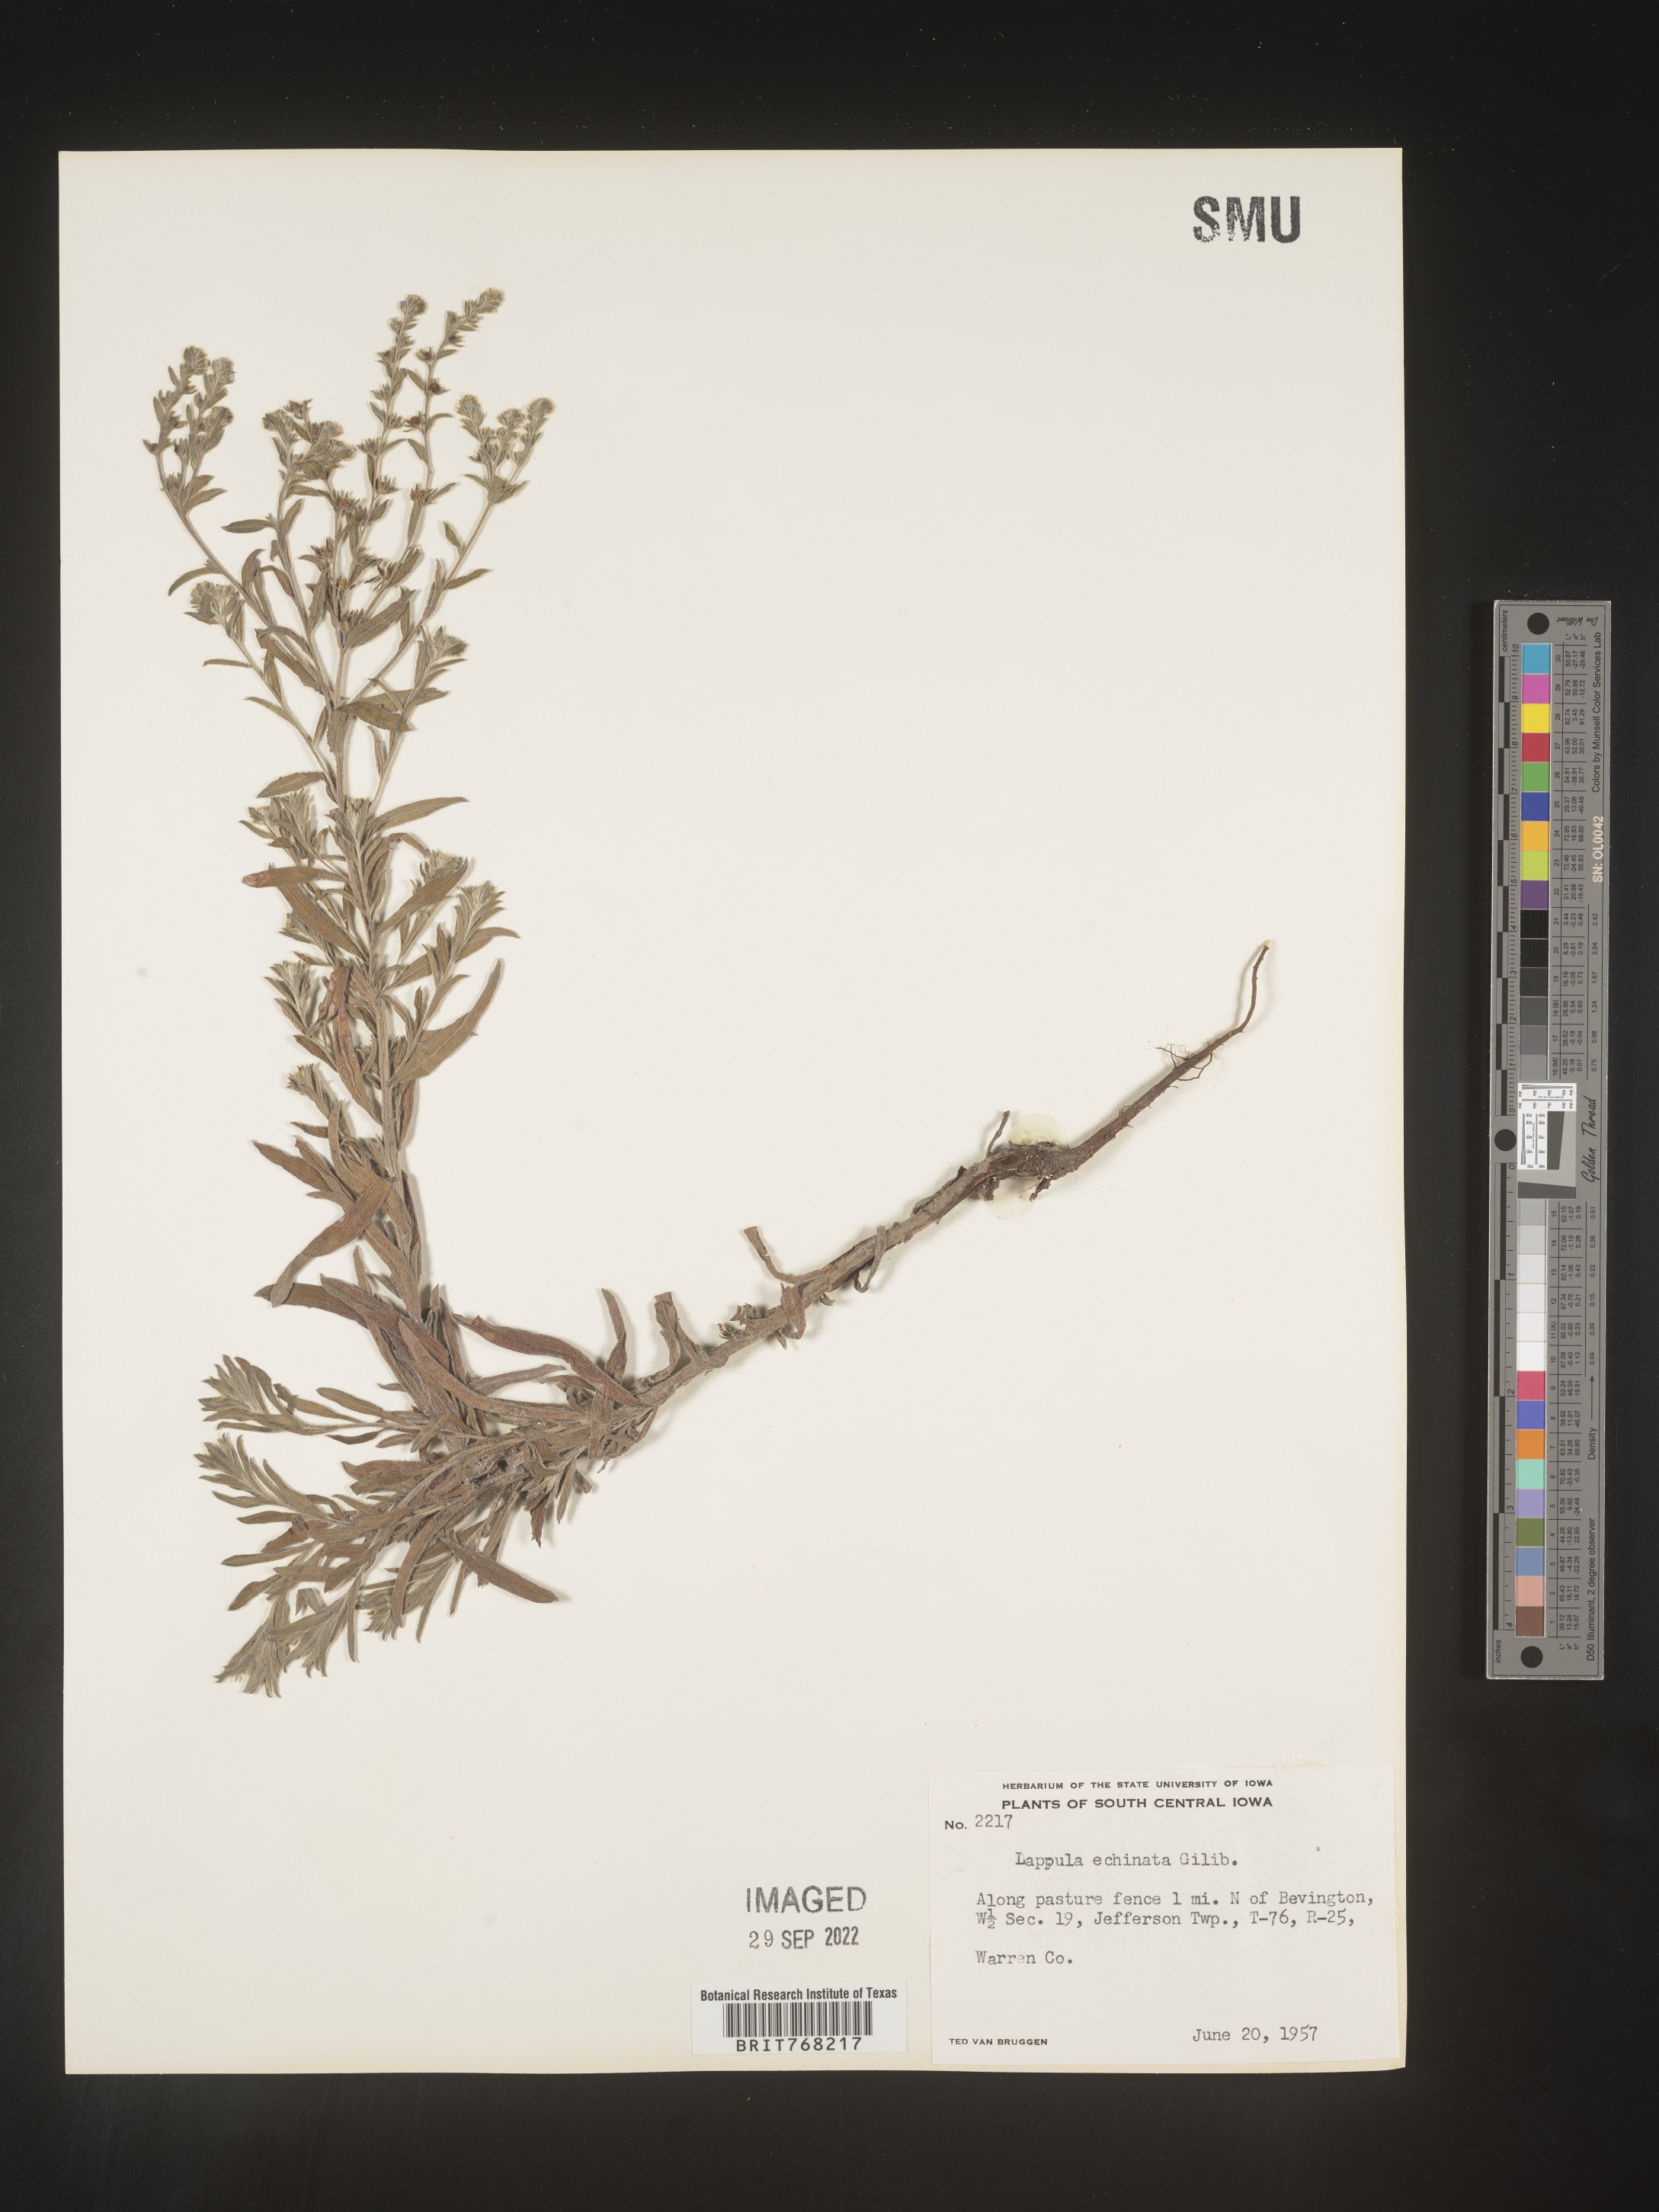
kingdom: Plantae
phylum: Tracheophyta
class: Magnoliopsida
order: Boraginales
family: Boraginaceae
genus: Lappula
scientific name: Lappula
